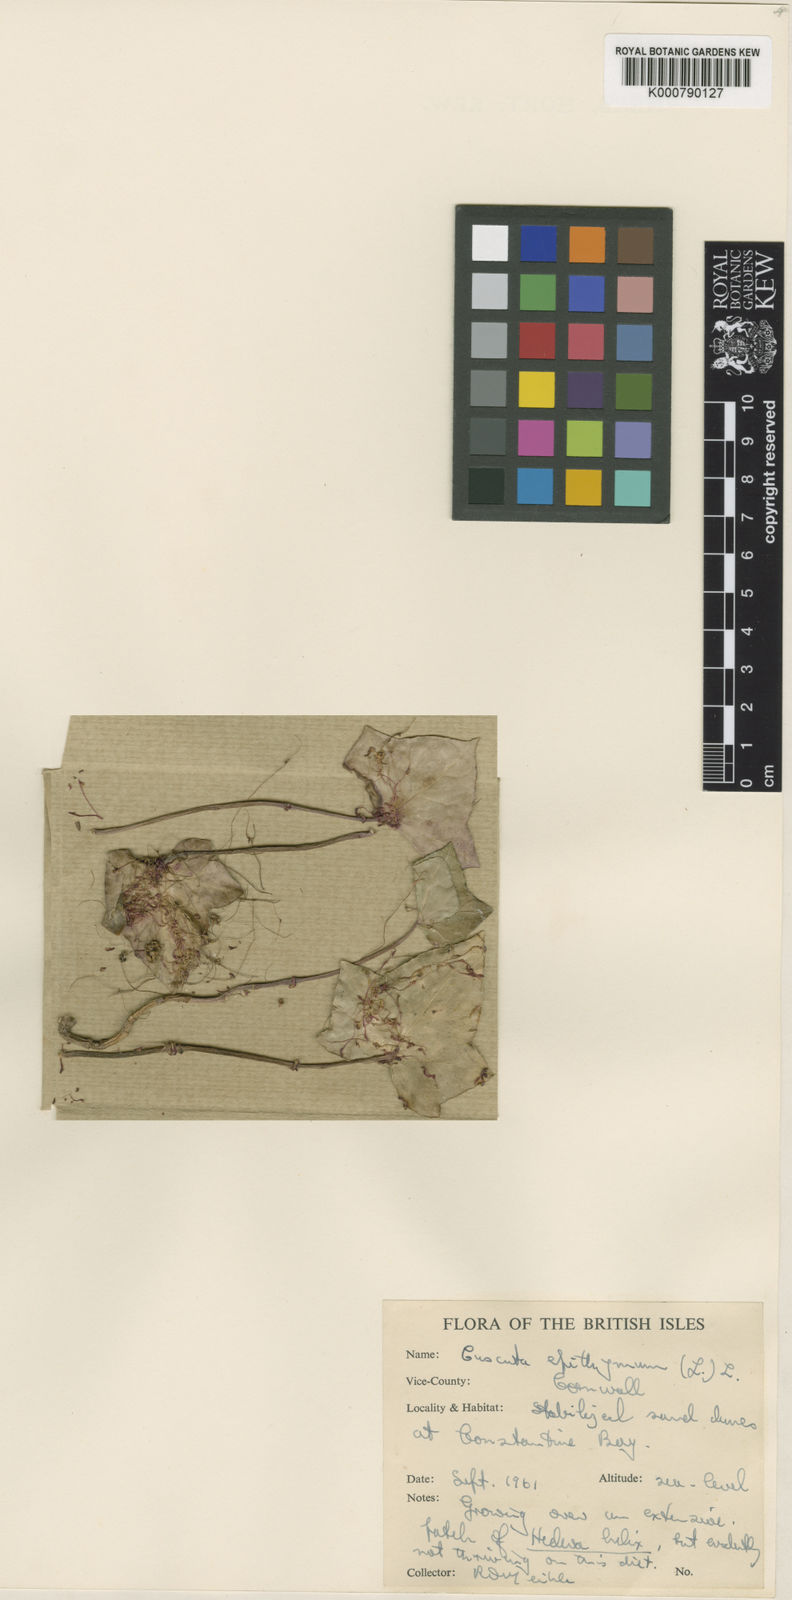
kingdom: Plantae
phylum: Tracheophyta
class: Magnoliopsida
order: Solanales
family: Convolvulaceae
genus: Cuscuta
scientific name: Cuscuta epithymum
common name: Clover dodder
